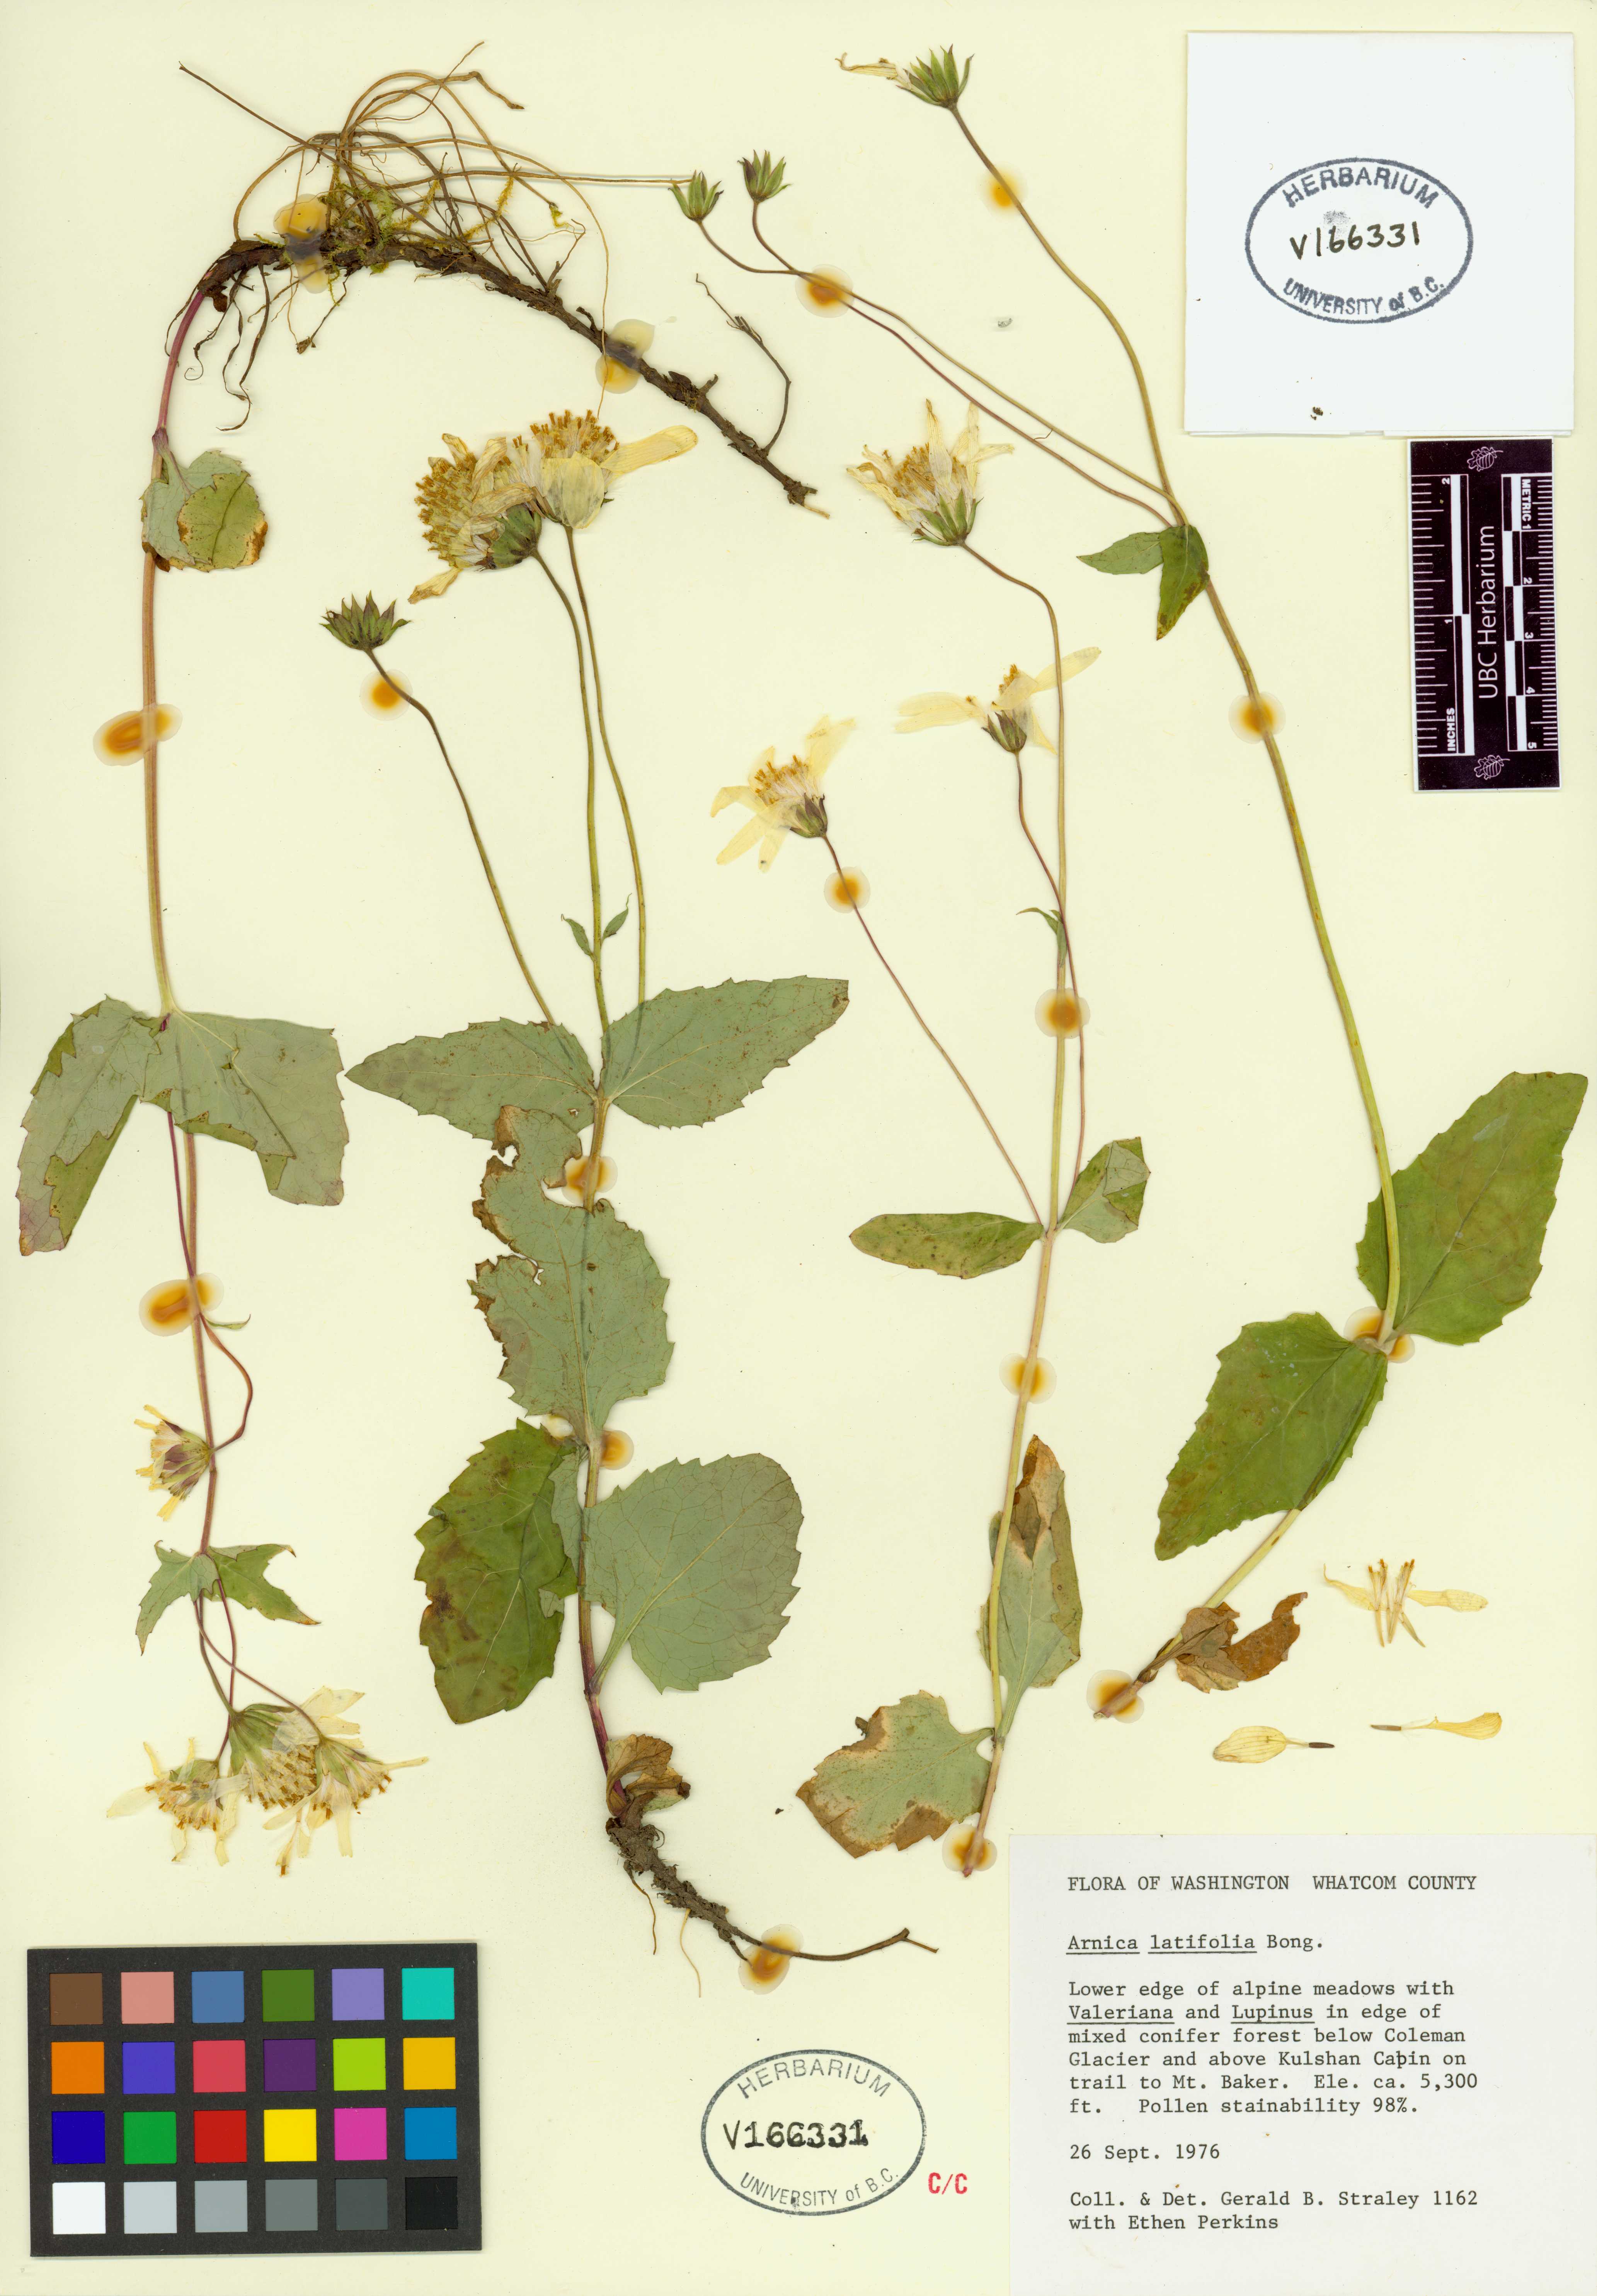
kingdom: Plantae
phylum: Tracheophyta
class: Magnoliopsida
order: Asterales
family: Asteraceae
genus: Arnica
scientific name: Arnica latifolia
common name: Arnica
